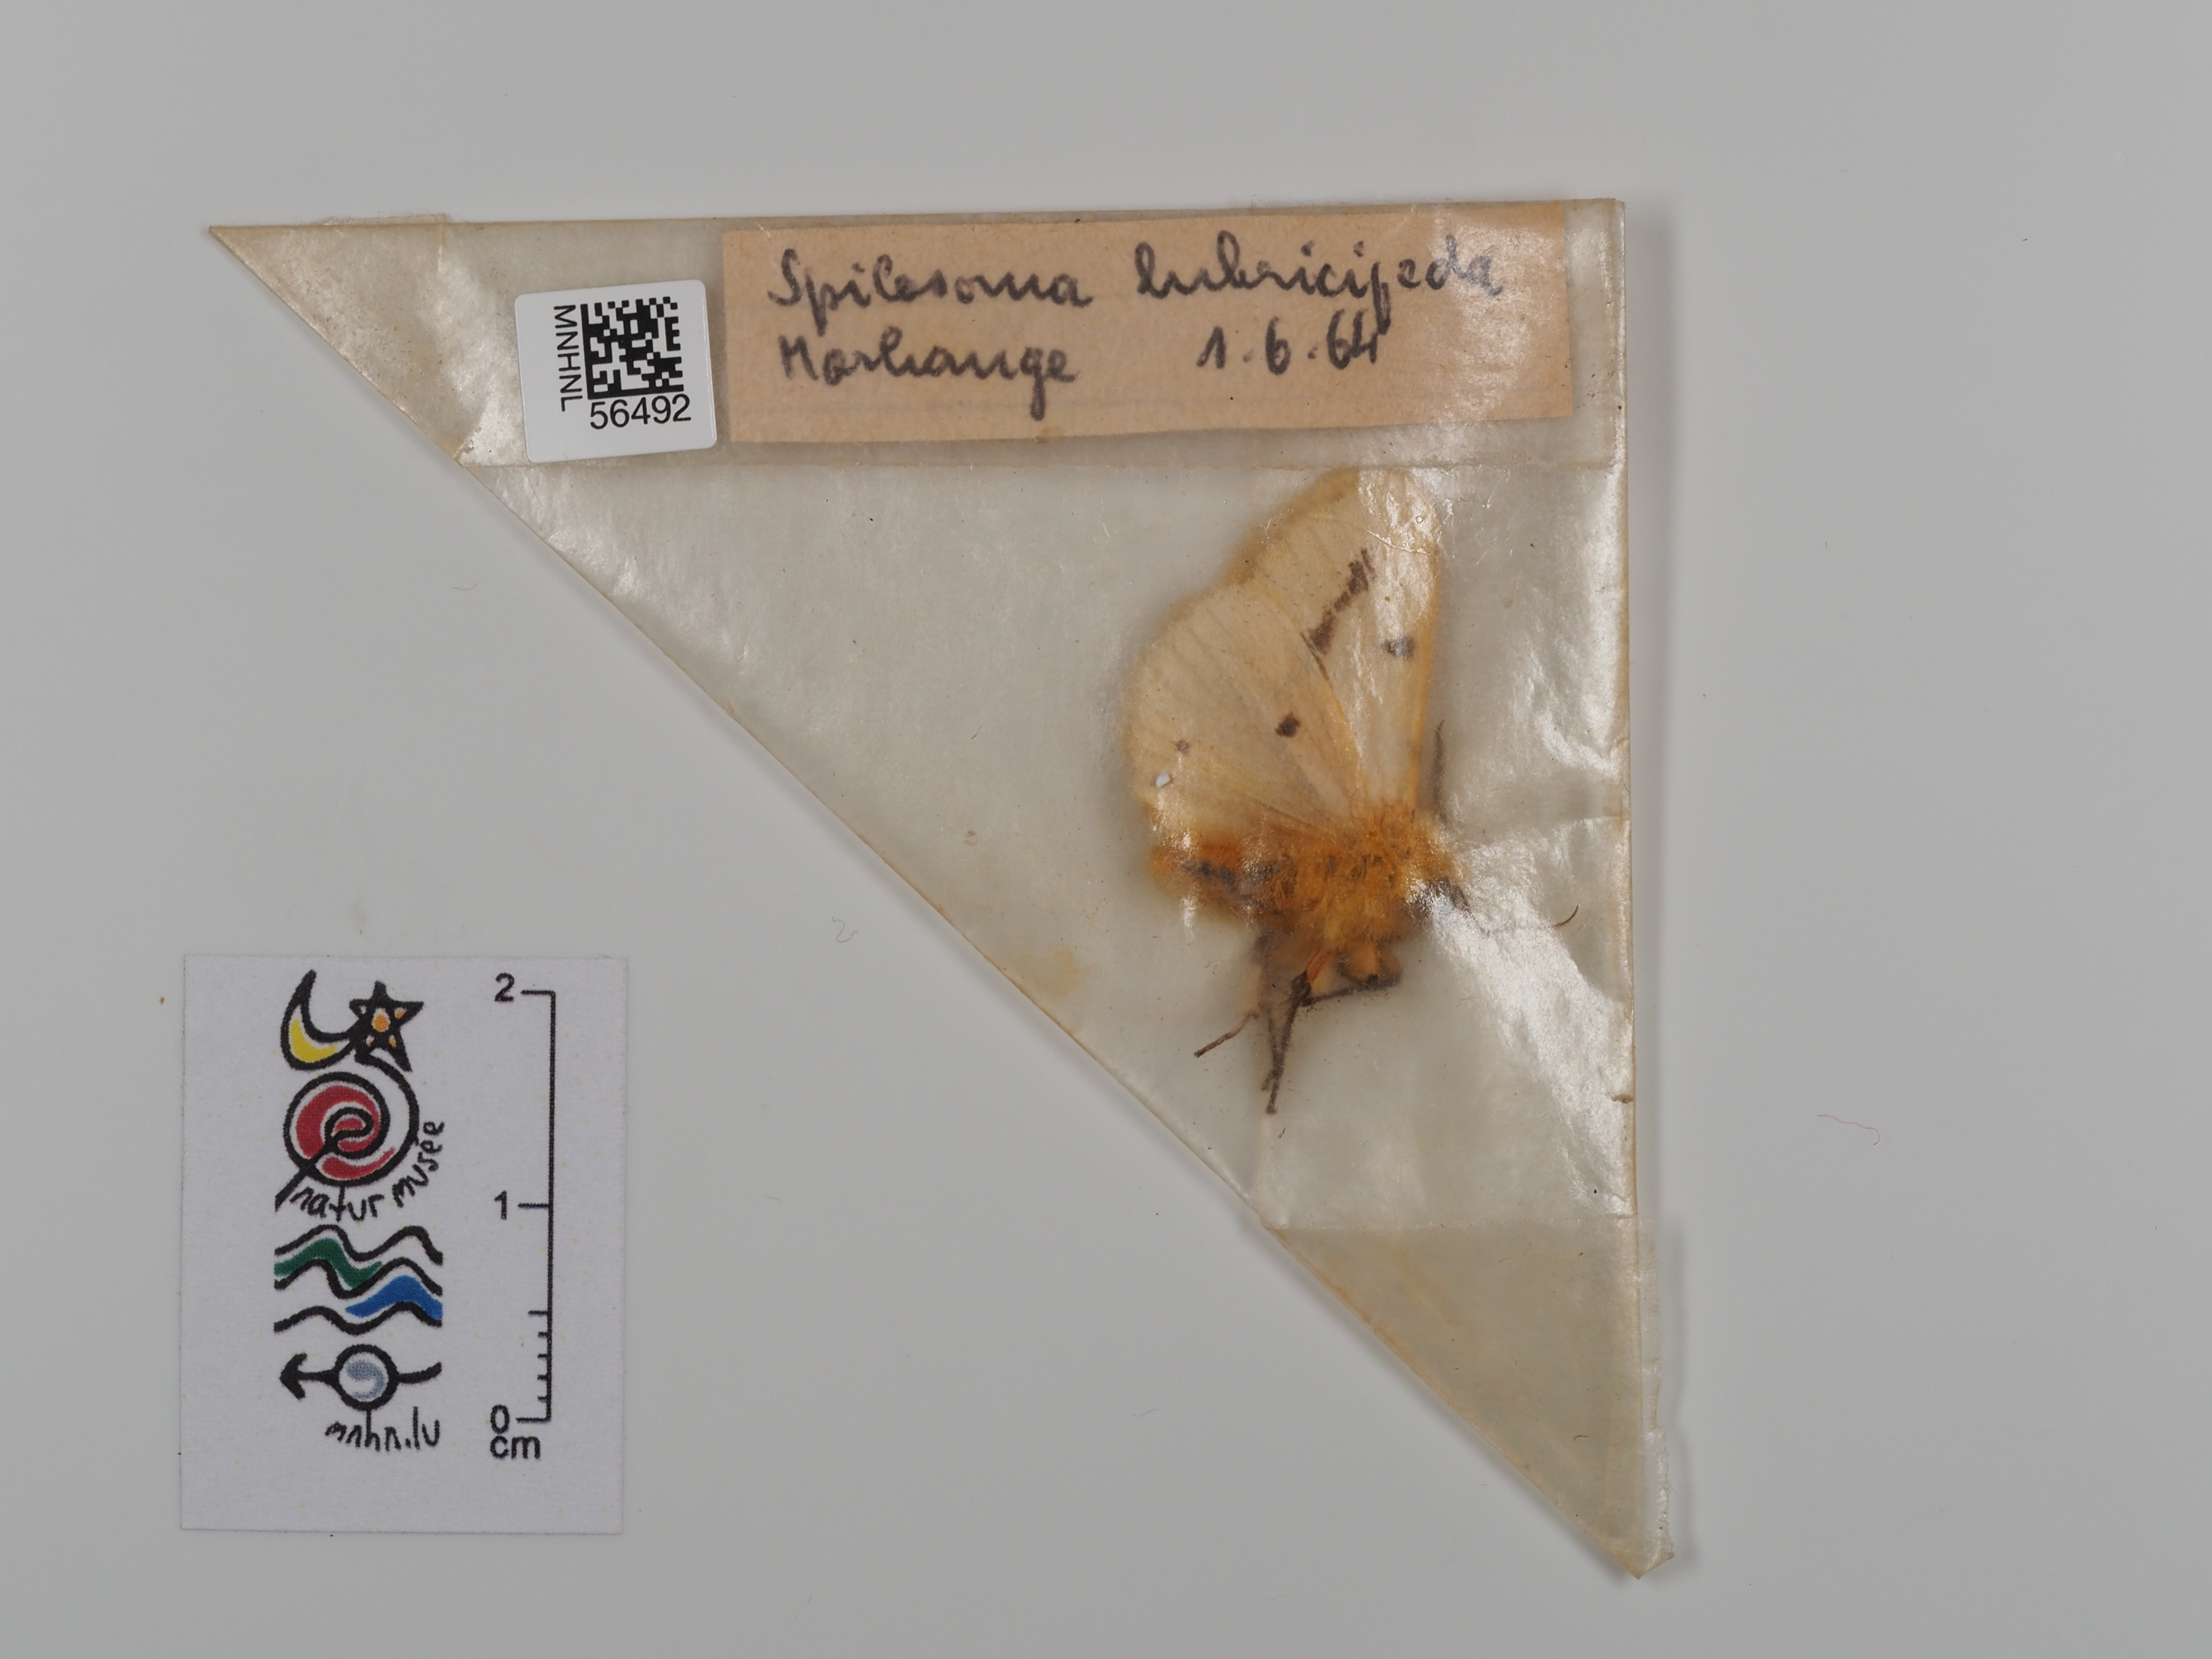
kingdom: Animalia
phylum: Arthropoda
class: Insecta
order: Lepidoptera
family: Erebidae
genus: Spilosoma
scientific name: Spilosoma lubricipeda
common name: White ermine
